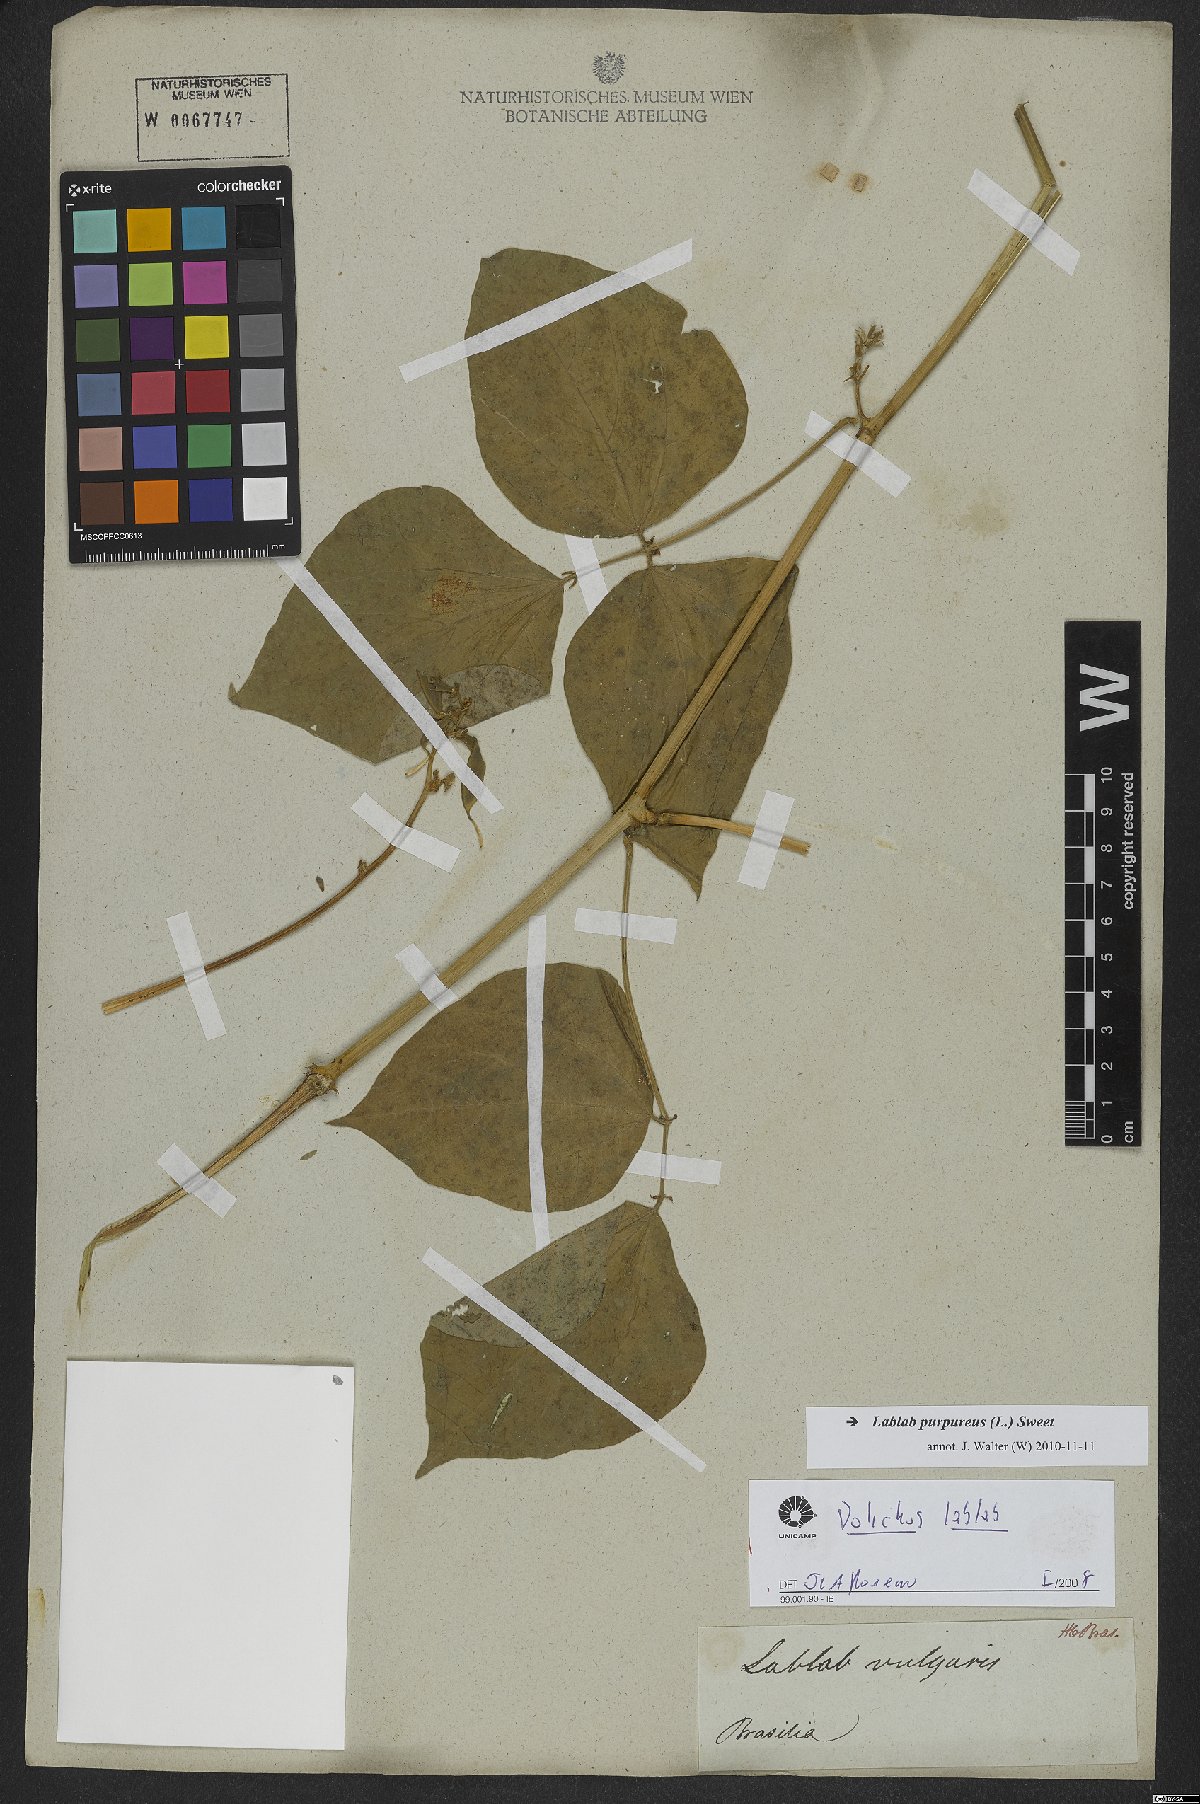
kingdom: Plantae
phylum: Tracheophyta
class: Magnoliopsida
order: Fabales
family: Fabaceae
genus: Lablab
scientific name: Lablab purpureus
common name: Lablab-bean
